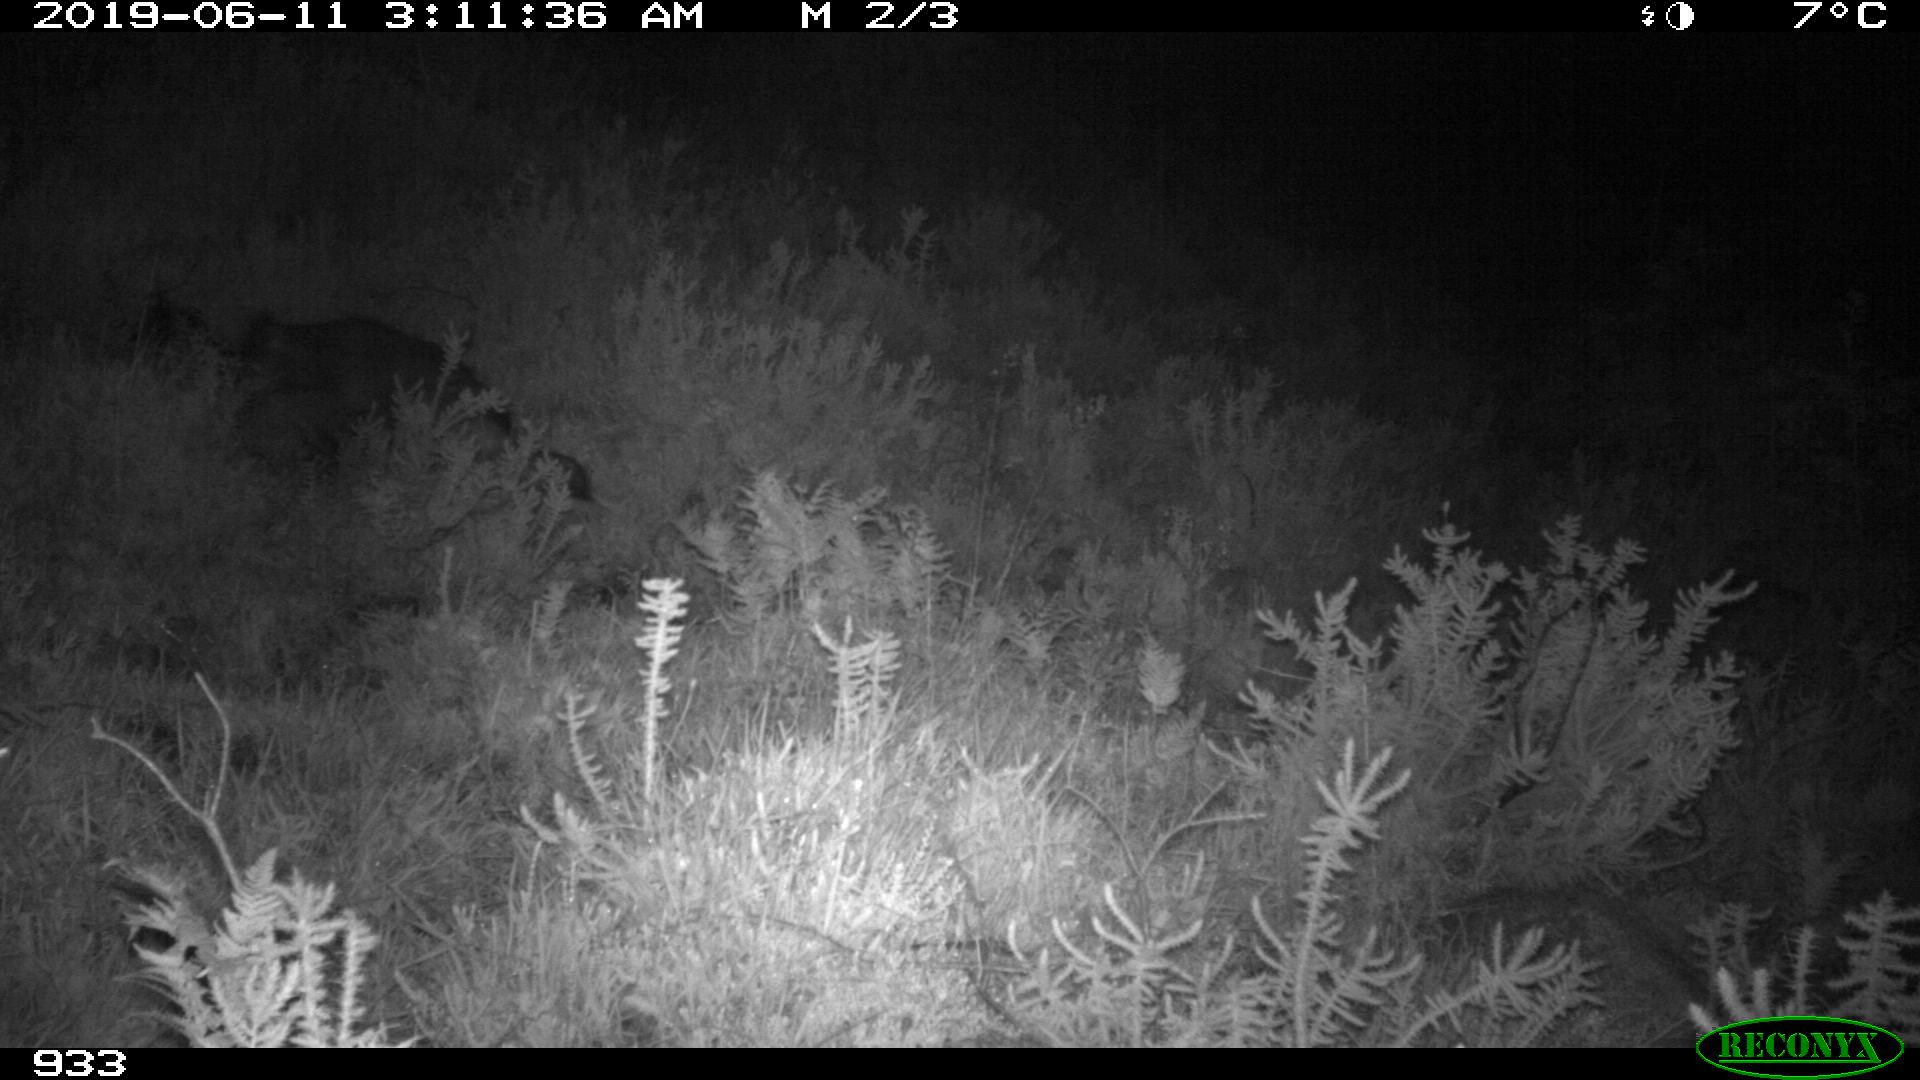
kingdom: Animalia
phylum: Chordata
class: Mammalia
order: Carnivora
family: Canidae
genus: Canis
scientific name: Canis lupus
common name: Gray wolf
